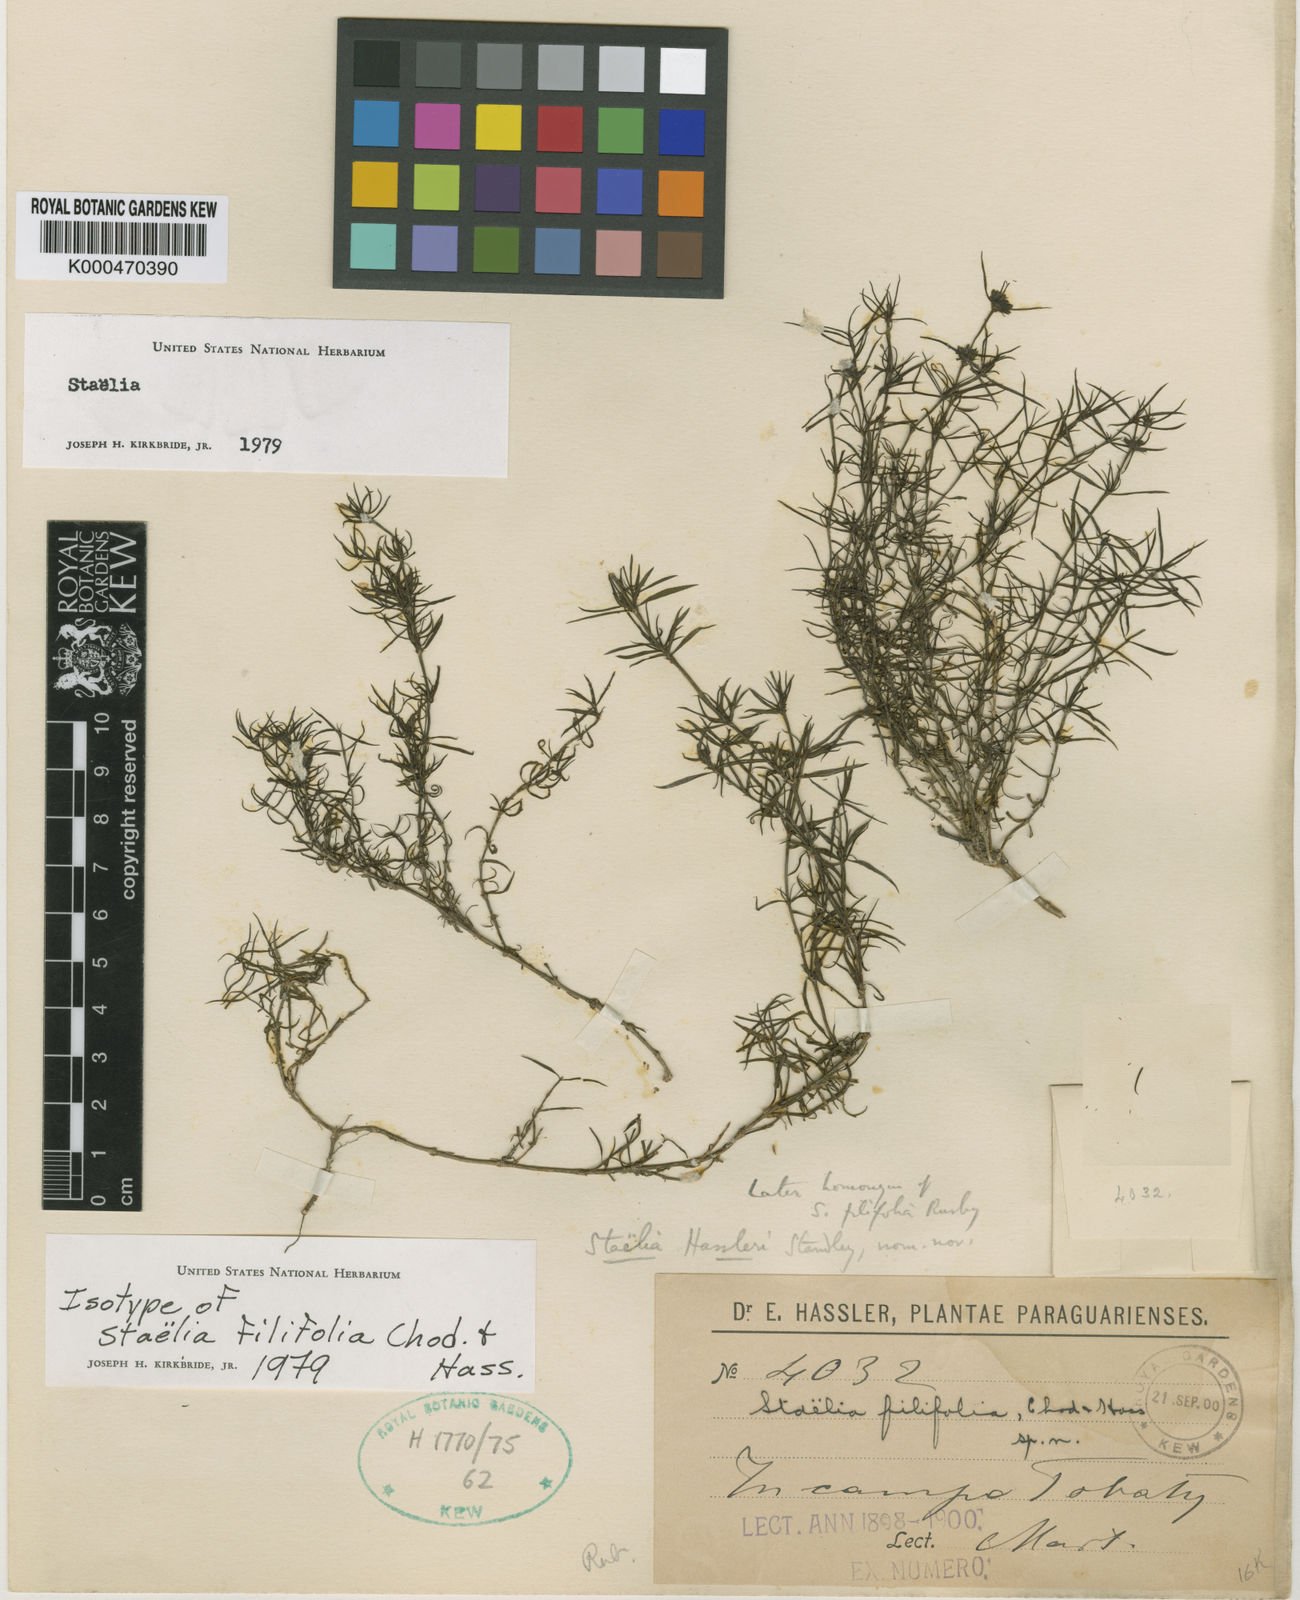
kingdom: Plantae
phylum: Tracheophyta
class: Magnoliopsida
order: Gentianales
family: Rubiaceae
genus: Staelia
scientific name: Staelia thymoides
